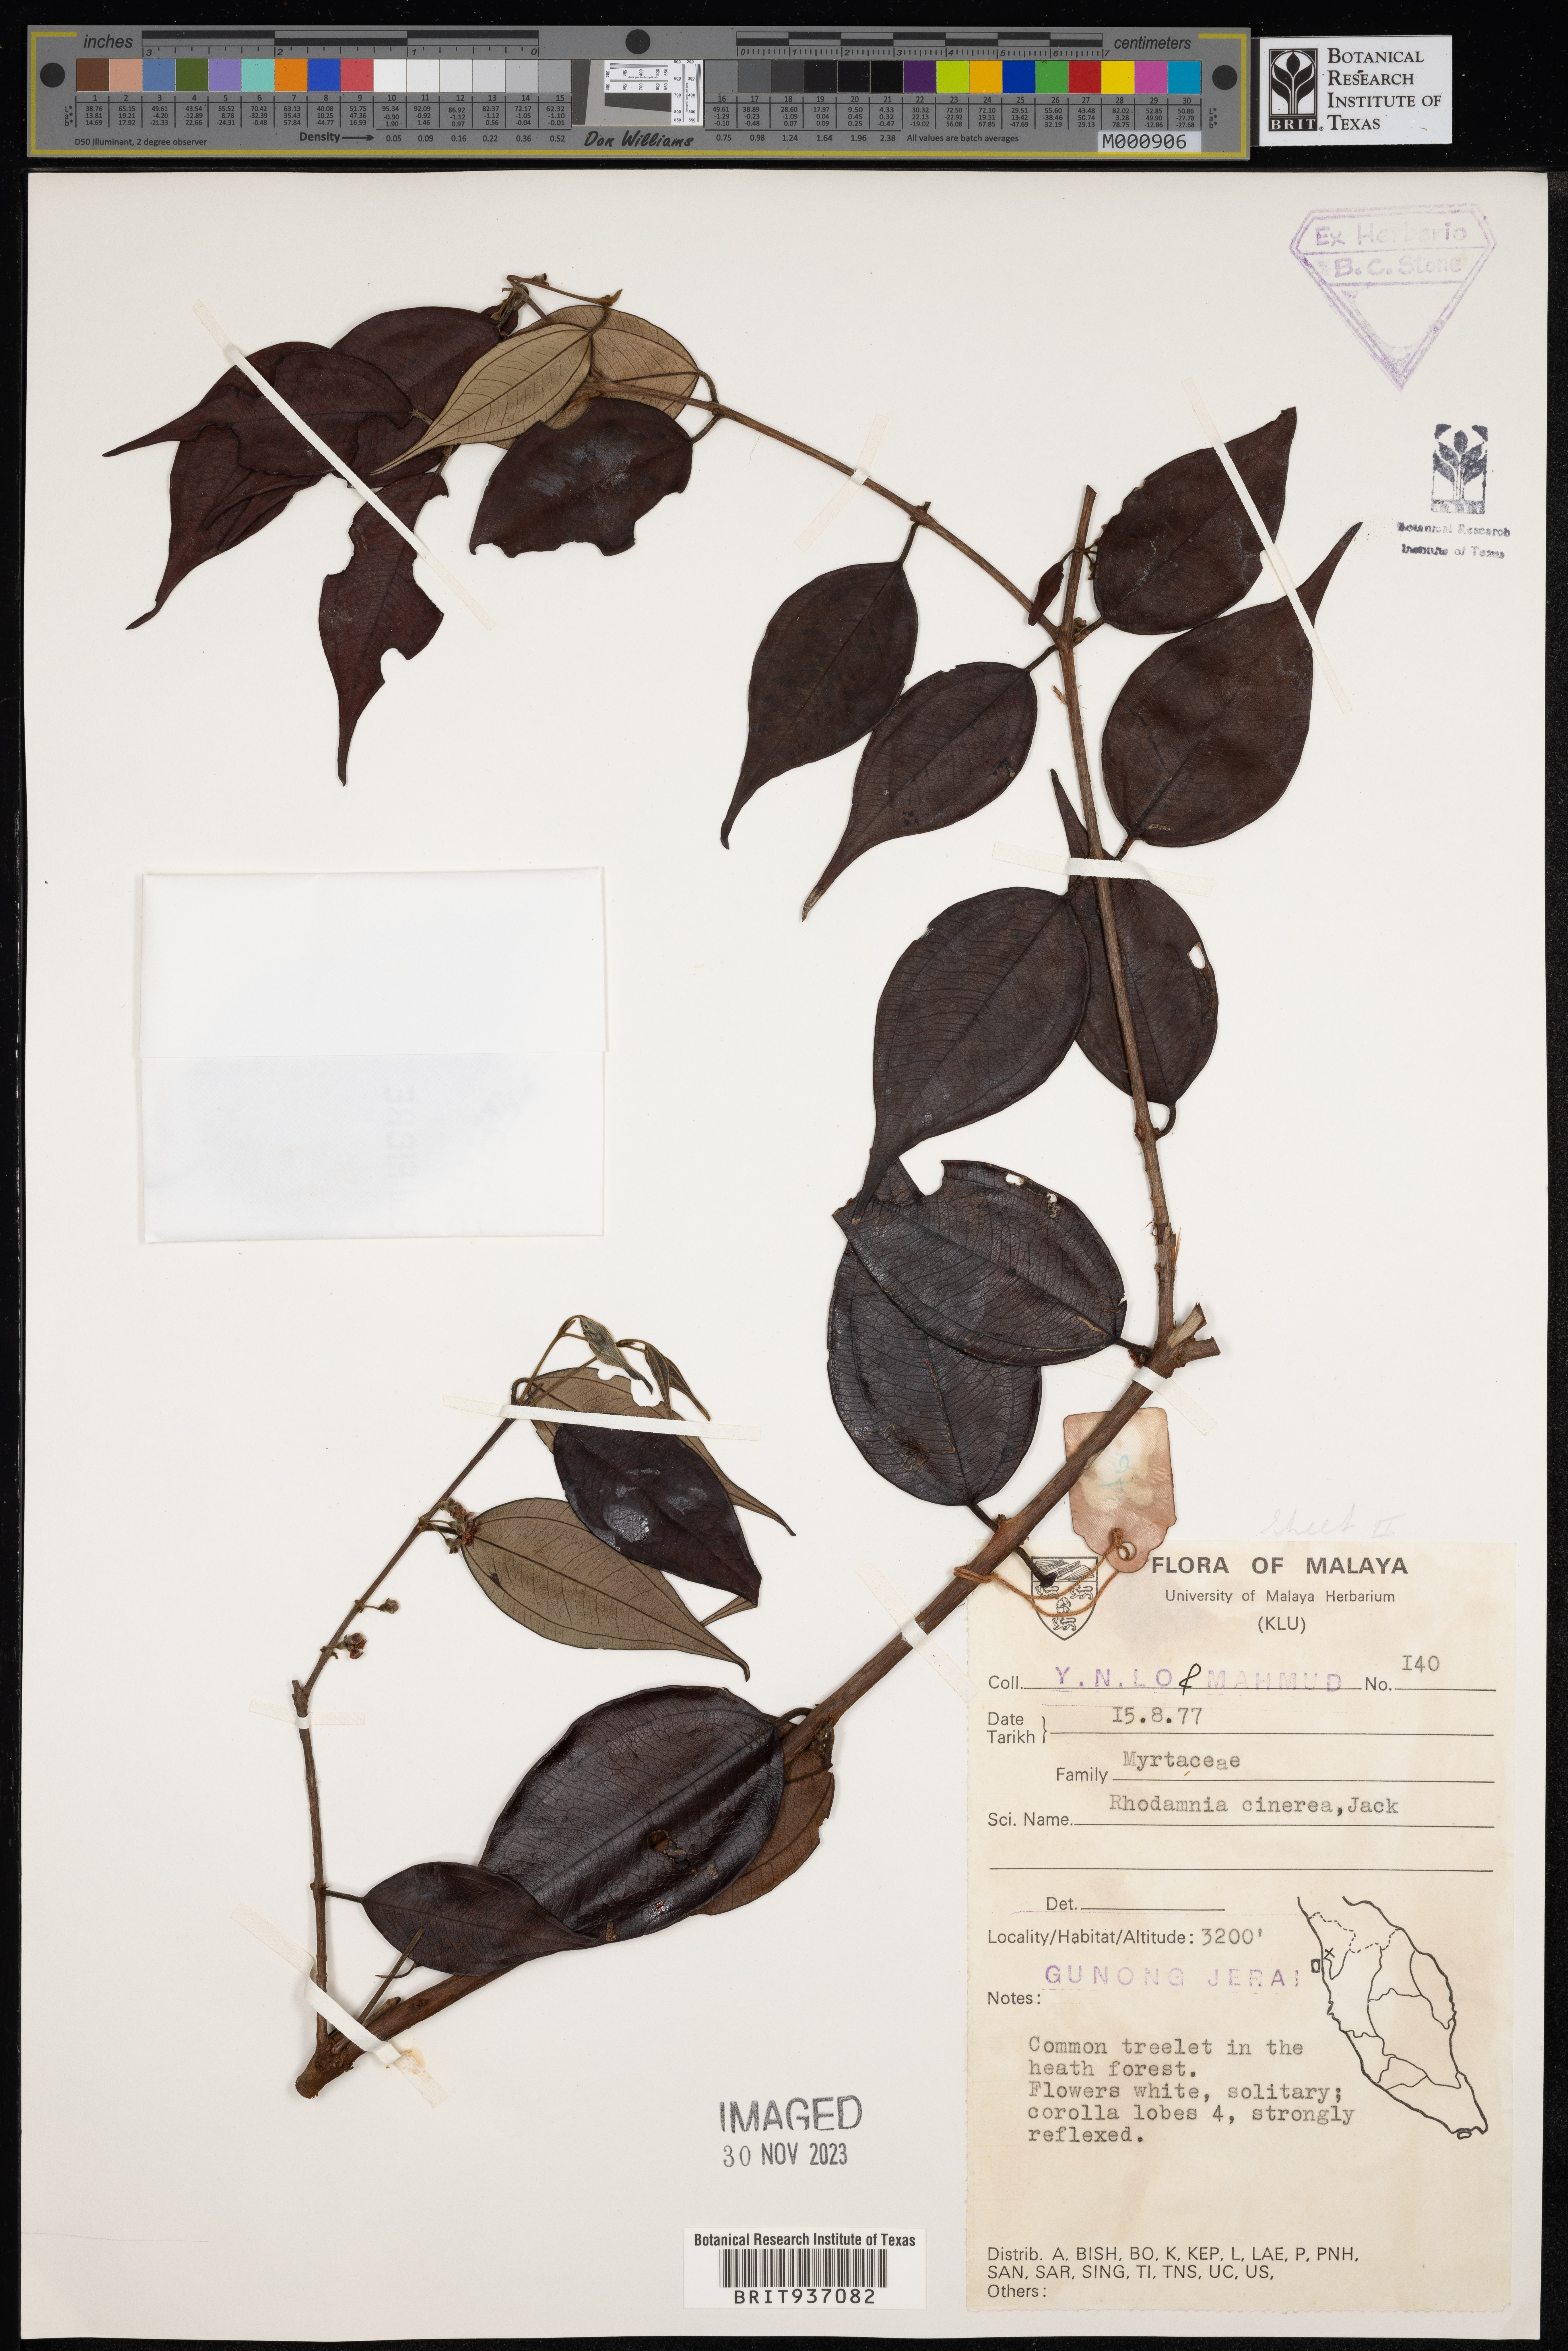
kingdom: Plantae
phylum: Tracheophyta
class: Magnoliopsida
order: Myrtales
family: Myrtaceae
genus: Rhodamnia
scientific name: Rhodamnia
